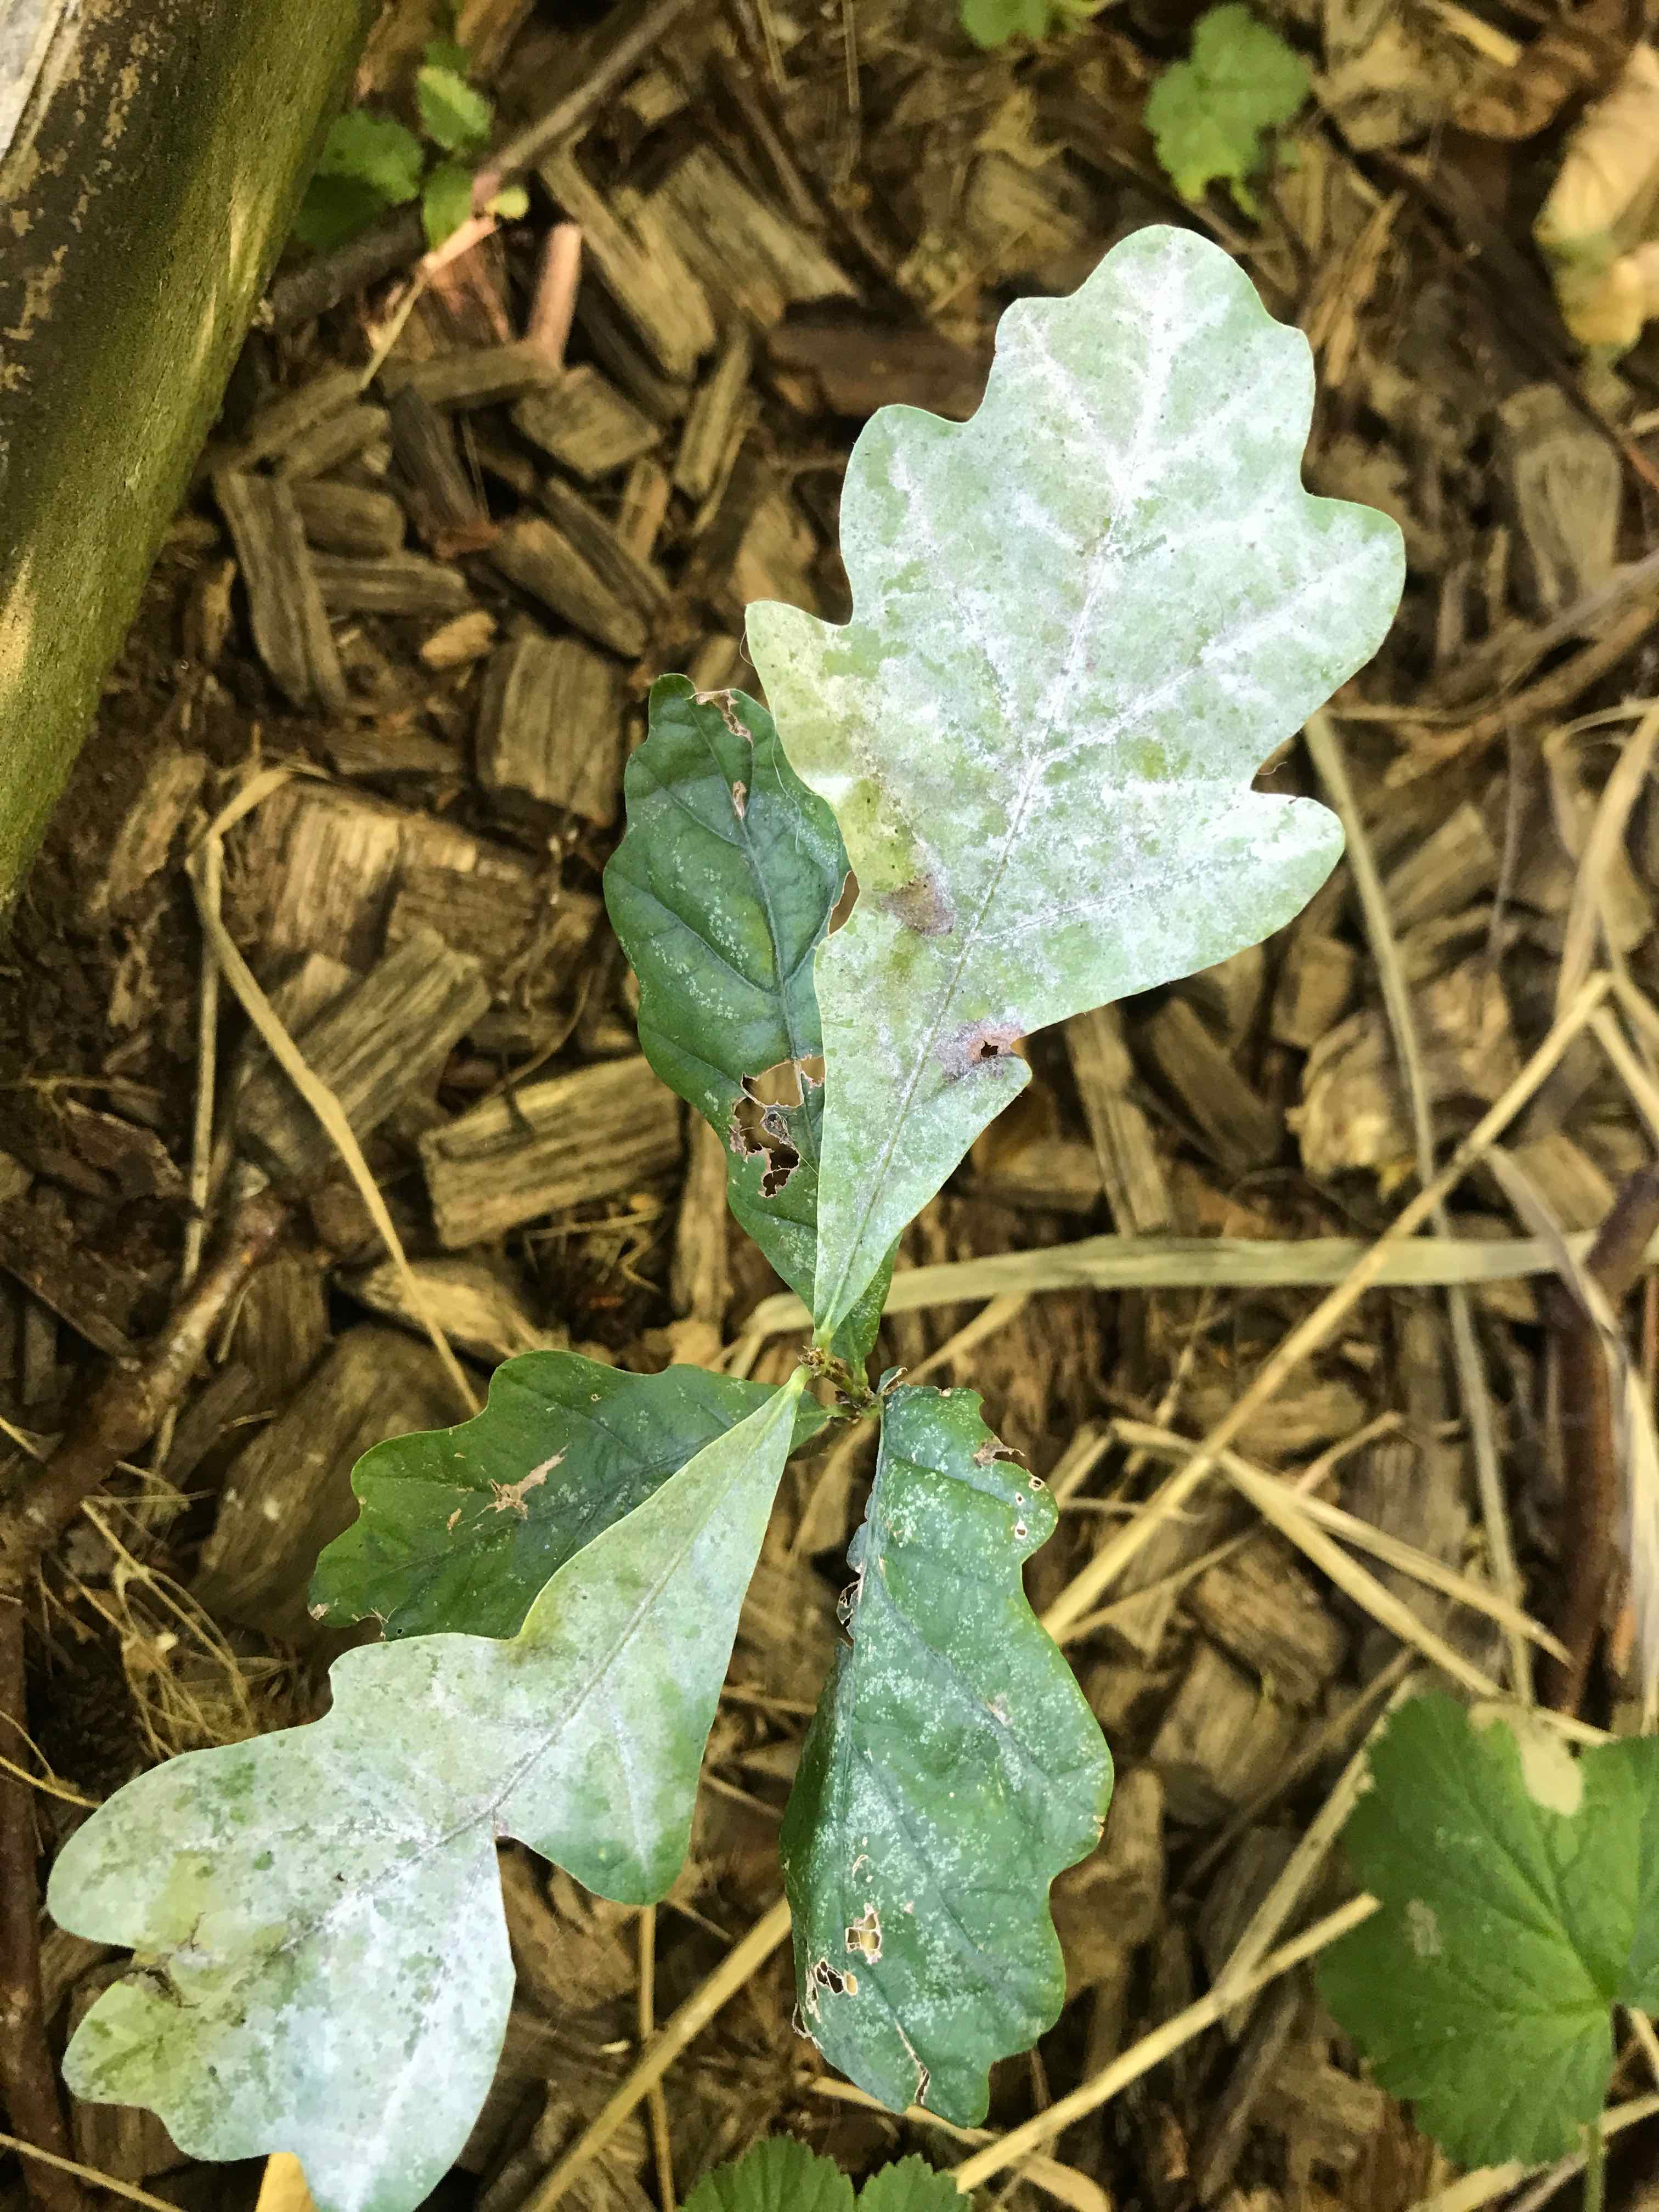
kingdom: Fungi
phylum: Ascomycota
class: Leotiomycetes
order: Helotiales
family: Erysiphaceae
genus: Erysiphe
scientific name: Erysiphe alphitoides
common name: ege-meldug
